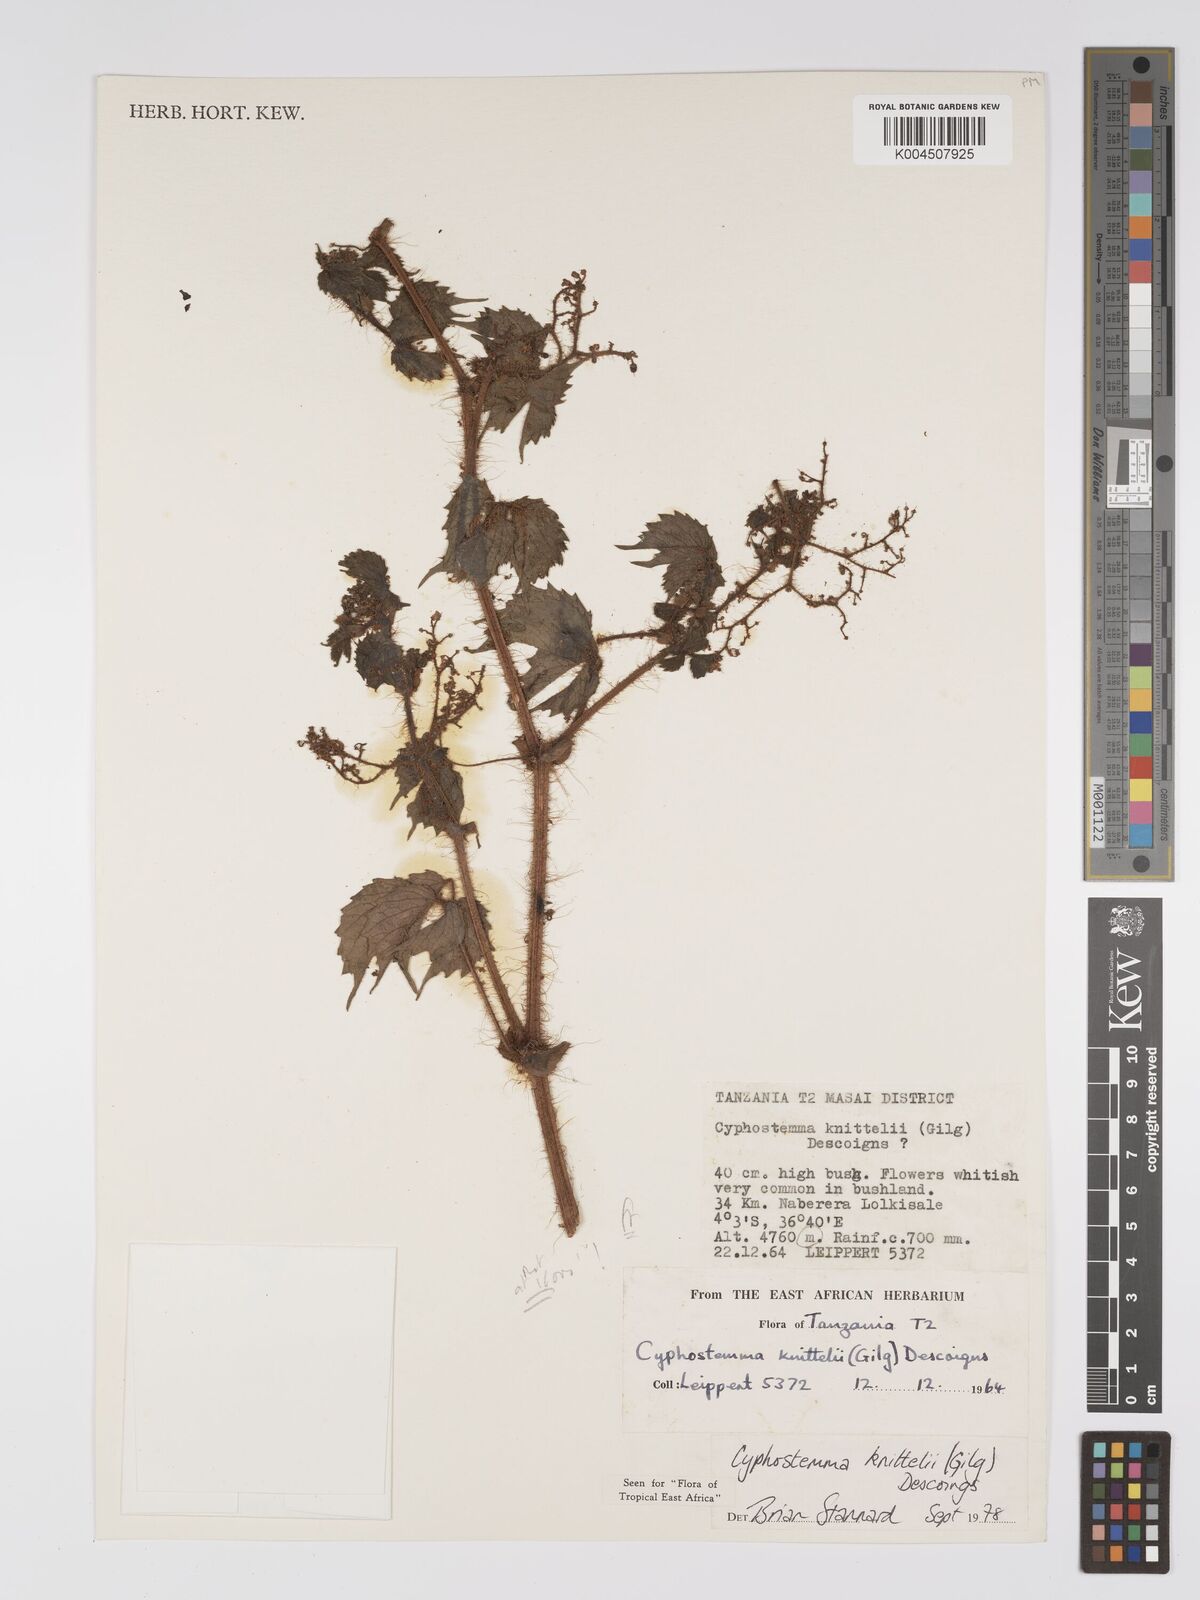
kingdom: Plantae
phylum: Tracheophyta
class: Magnoliopsida
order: Vitales
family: Vitaceae
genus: Cyphostemma
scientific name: Cyphostemma knittelii
